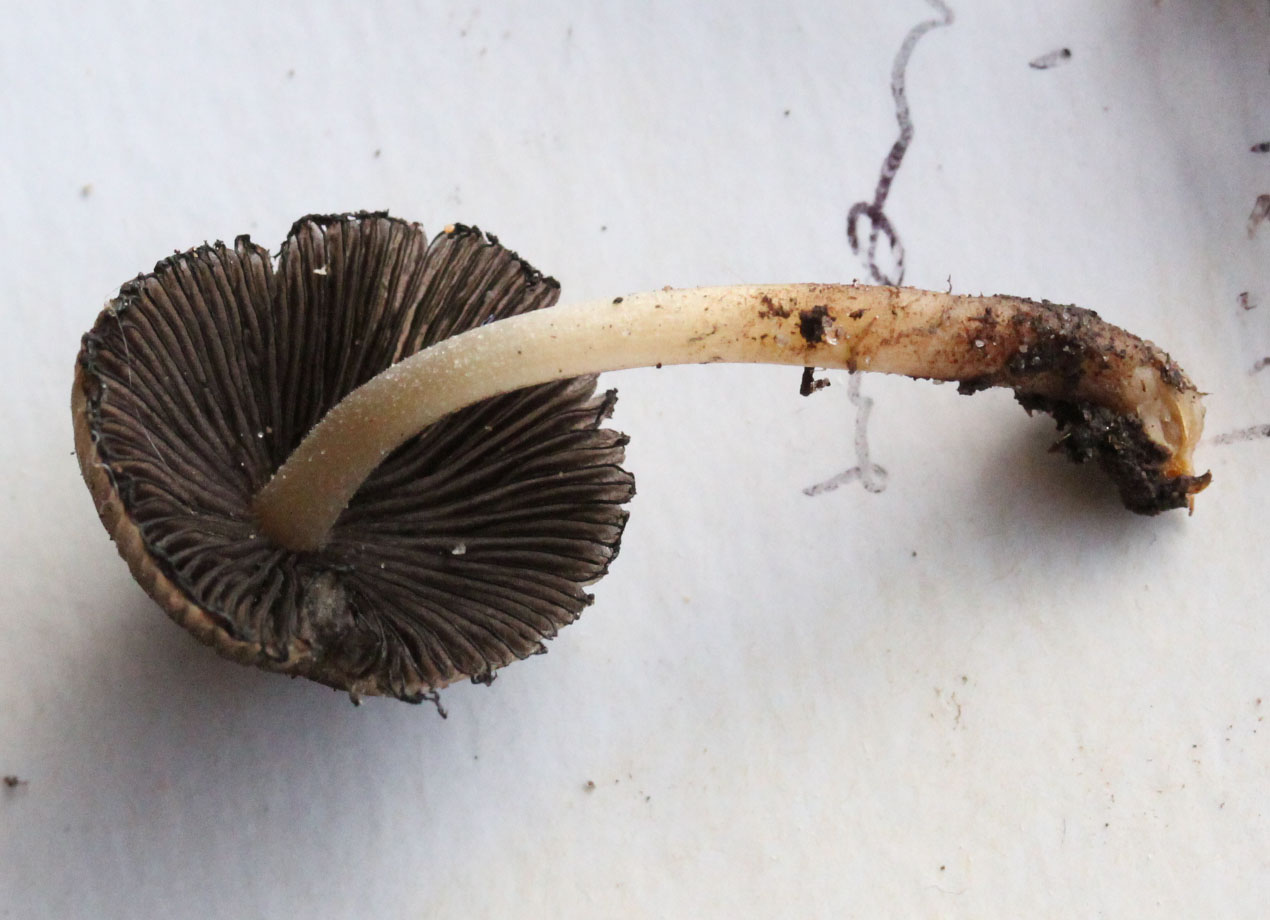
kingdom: Fungi
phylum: Basidiomycota
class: Agaricomycetes
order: Agaricales
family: Psathyrellaceae
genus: Coprinellus
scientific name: Coprinellus micaceus
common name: glimmer-blækhat
